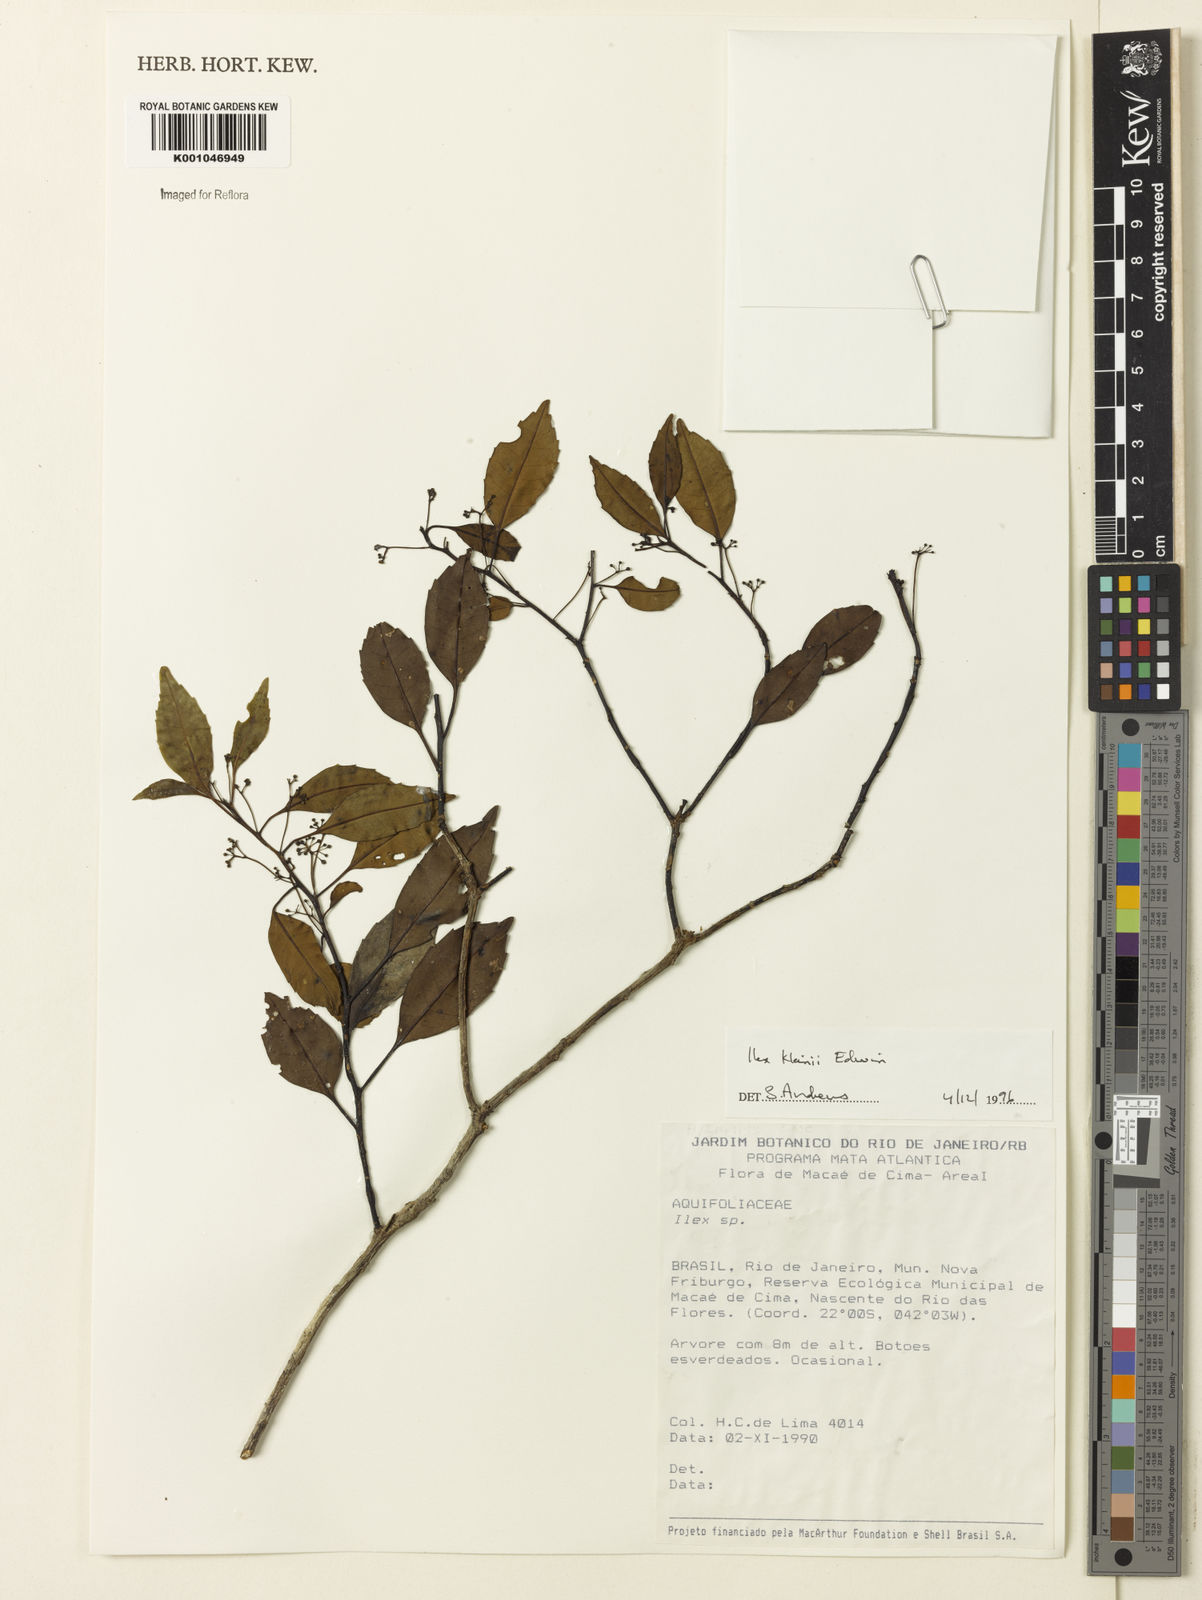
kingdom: Plantae
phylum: Tracheophyta
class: Magnoliopsida
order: Aquifoliales
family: Aquifoliaceae
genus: Ilex
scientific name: Ilex taubertiana
